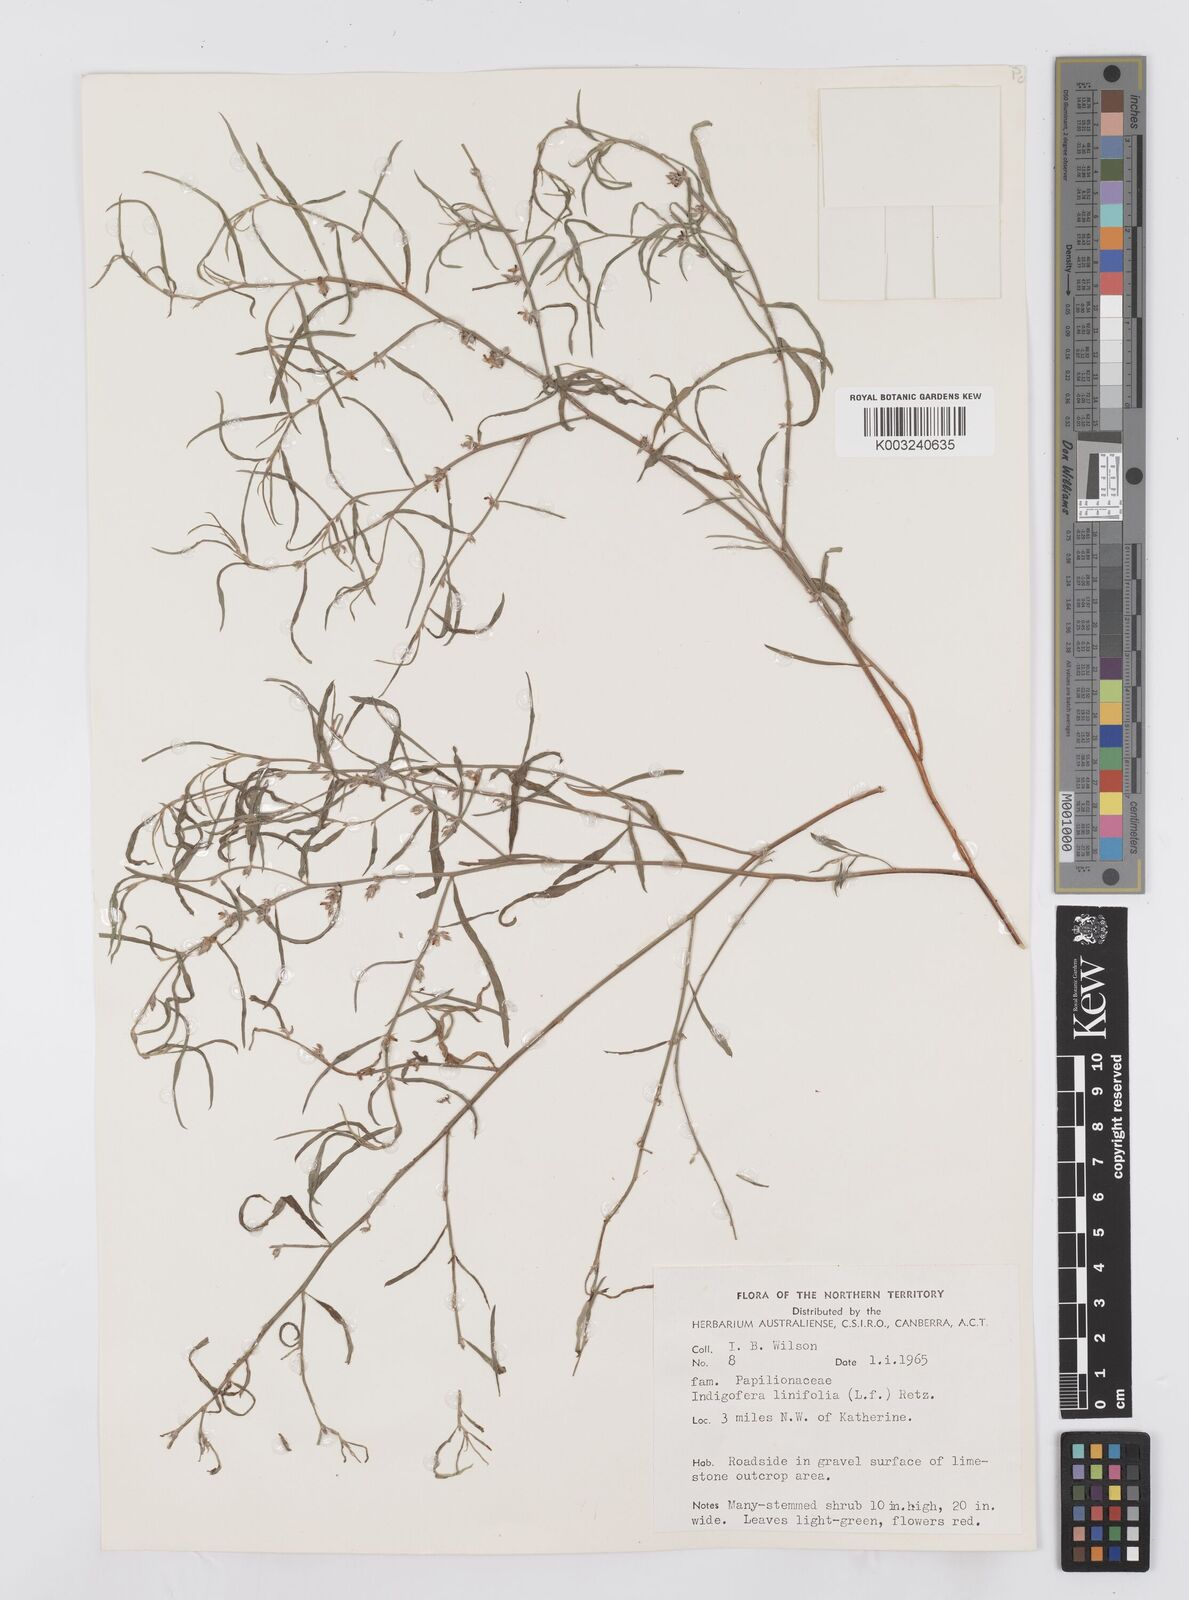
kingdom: Plantae
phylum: Tracheophyta
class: Magnoliopsida
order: Fabales
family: Fabaceae
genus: Indigofera
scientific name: Indigofera linifolia
